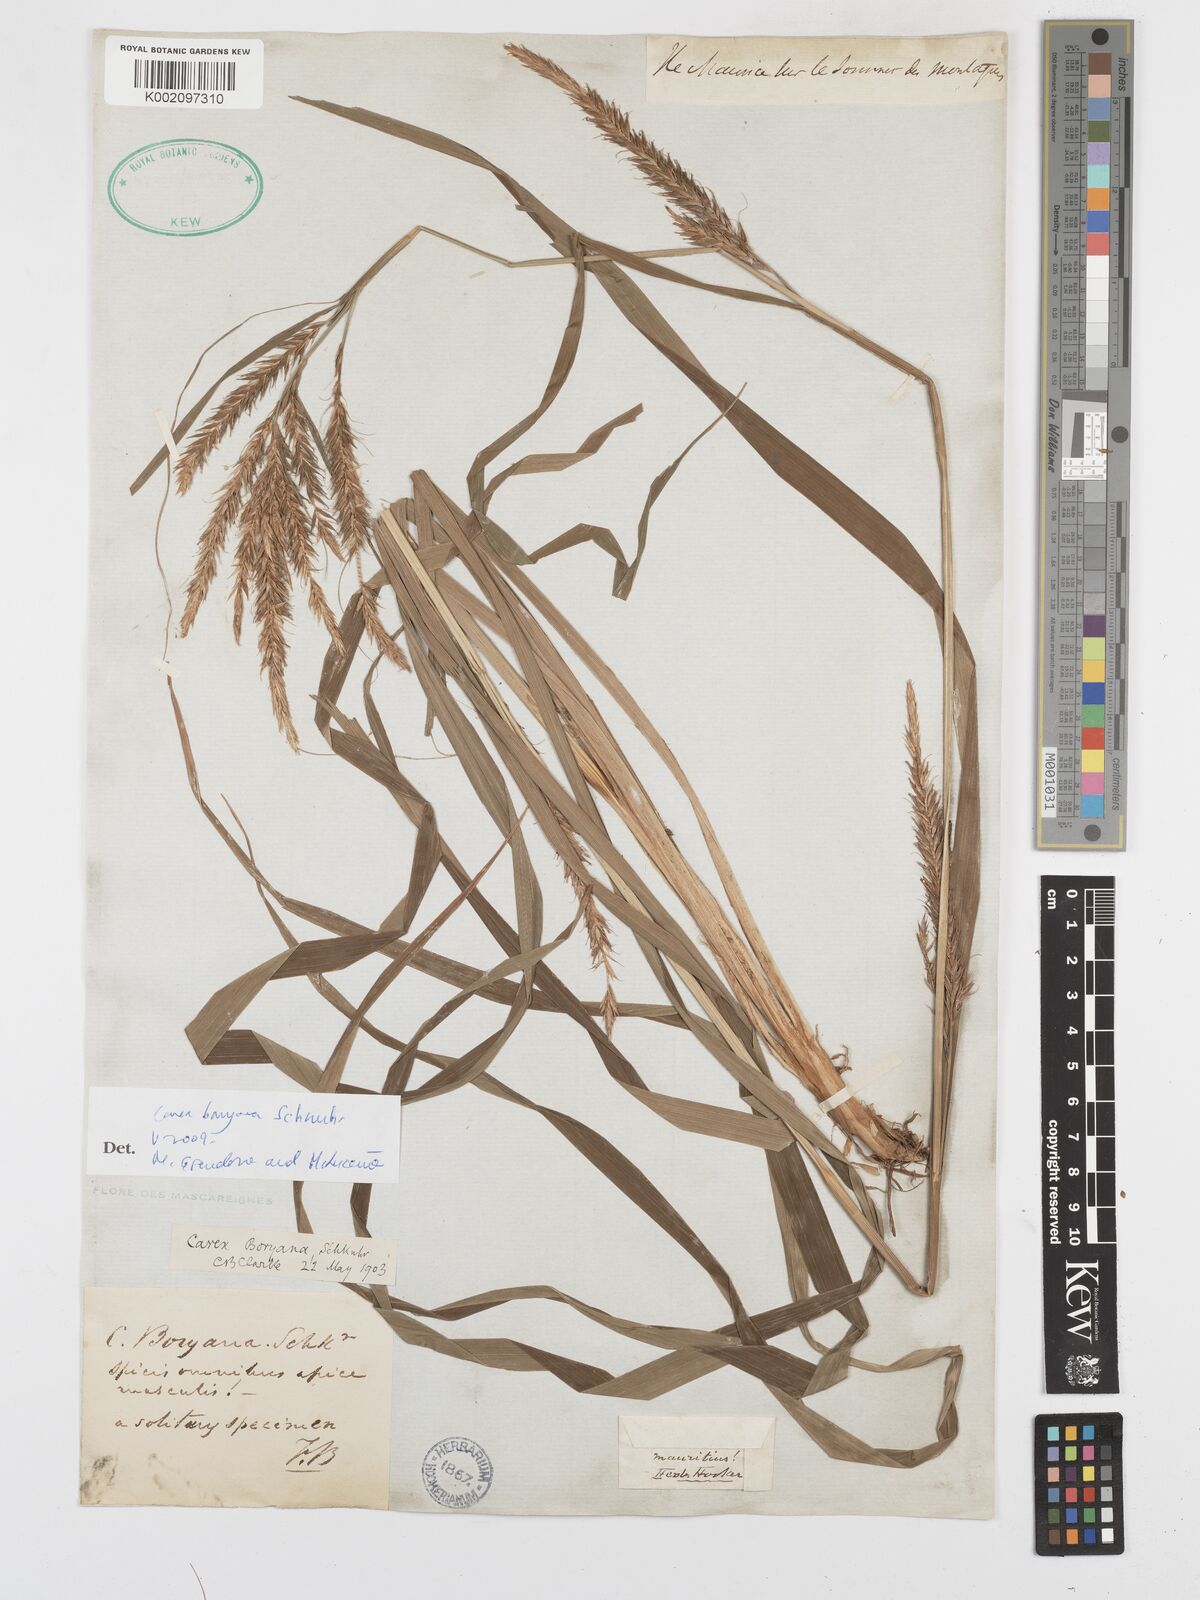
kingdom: Plantae
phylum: Tracheophyta
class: Liliopsida
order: Poales
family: Cyperaceae
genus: Carex
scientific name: Carex boryana
